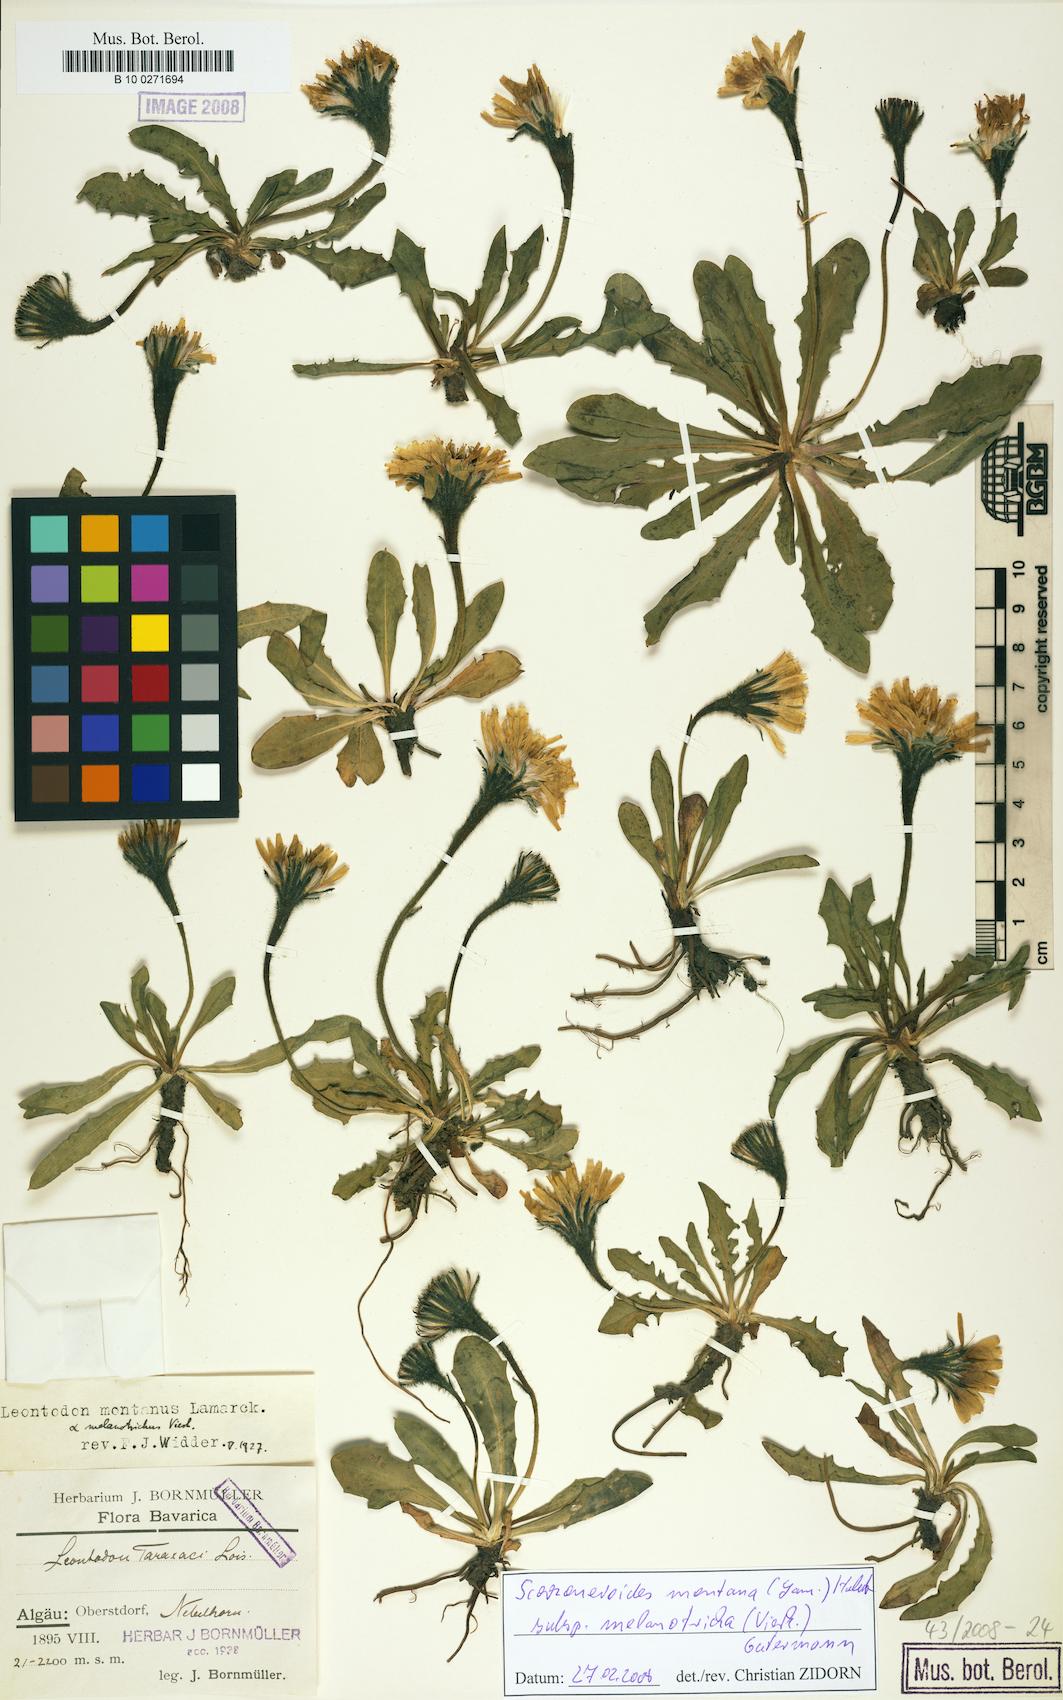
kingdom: Plantae
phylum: Tracheophyta
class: Magnoliopsida
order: Asterales
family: Asteraceae
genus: Scorzoneroides
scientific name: Scorzoneroides montana
